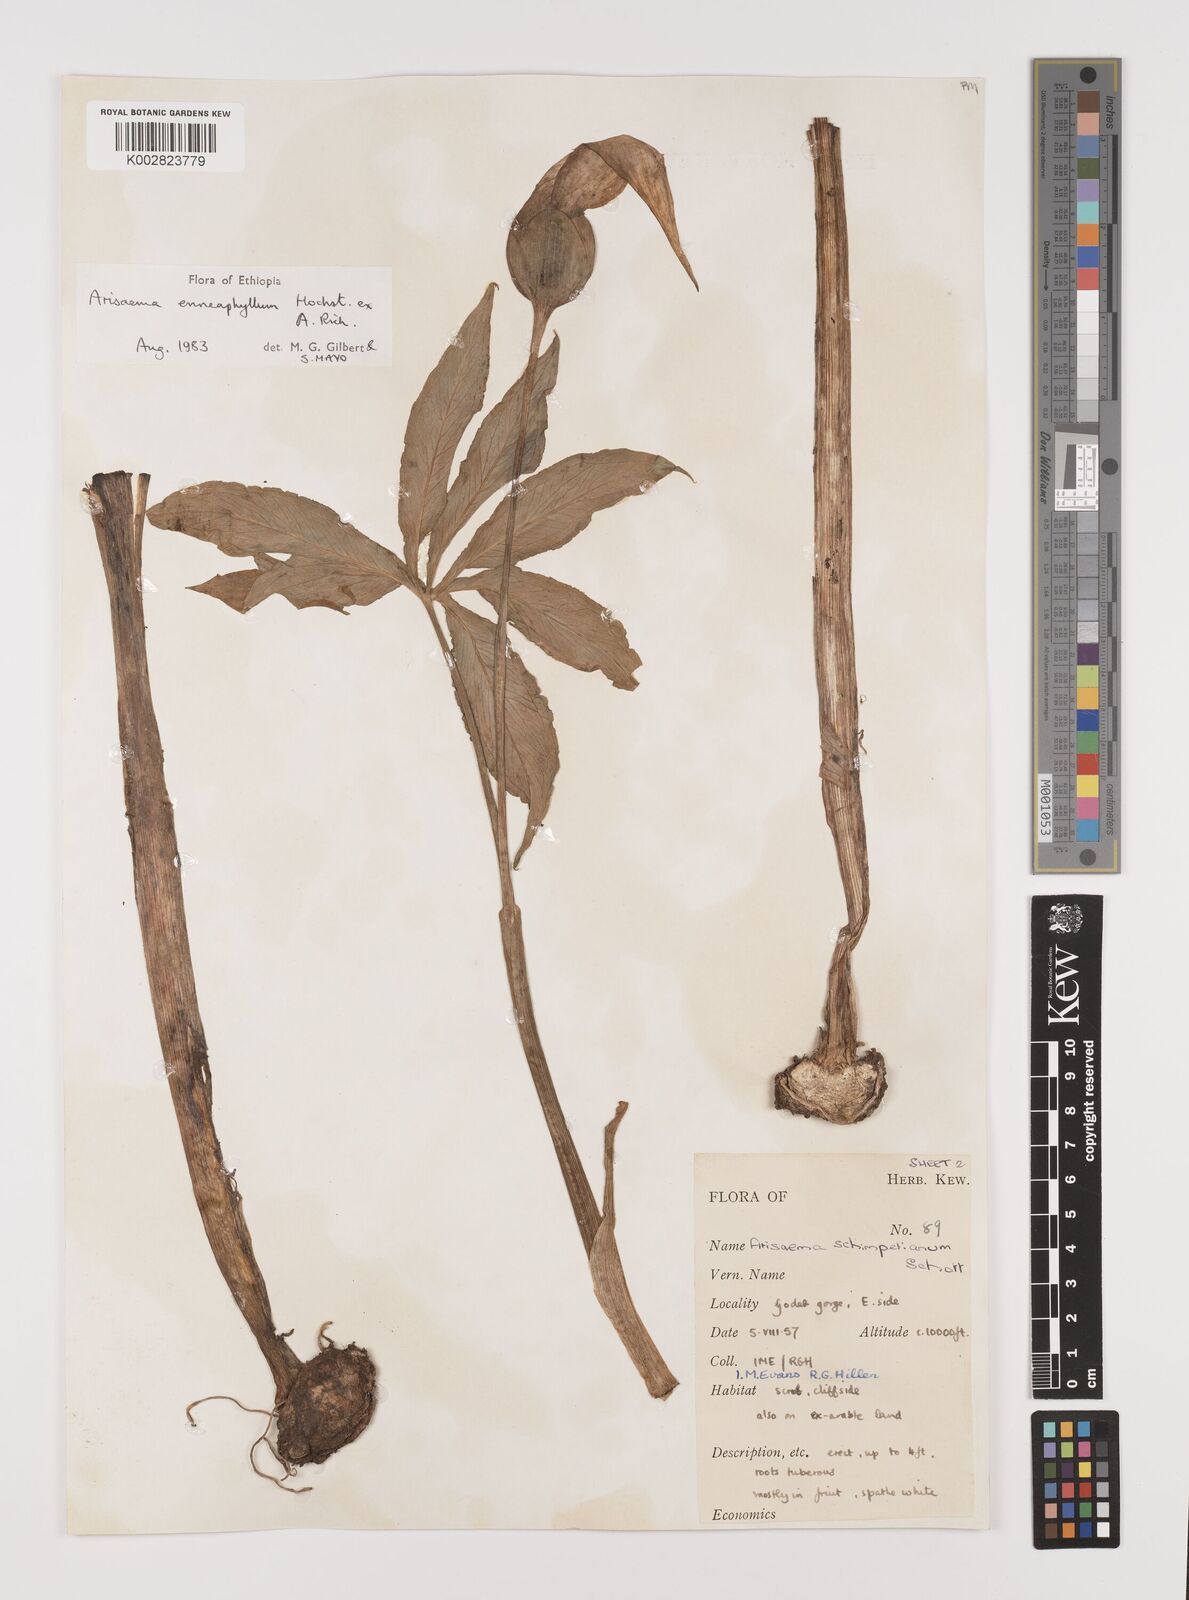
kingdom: Plantae
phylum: Tracheophyta
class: Liliopsida
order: Alismatales
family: Araceae
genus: Arisaema
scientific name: Arisaema enneaphyllum
